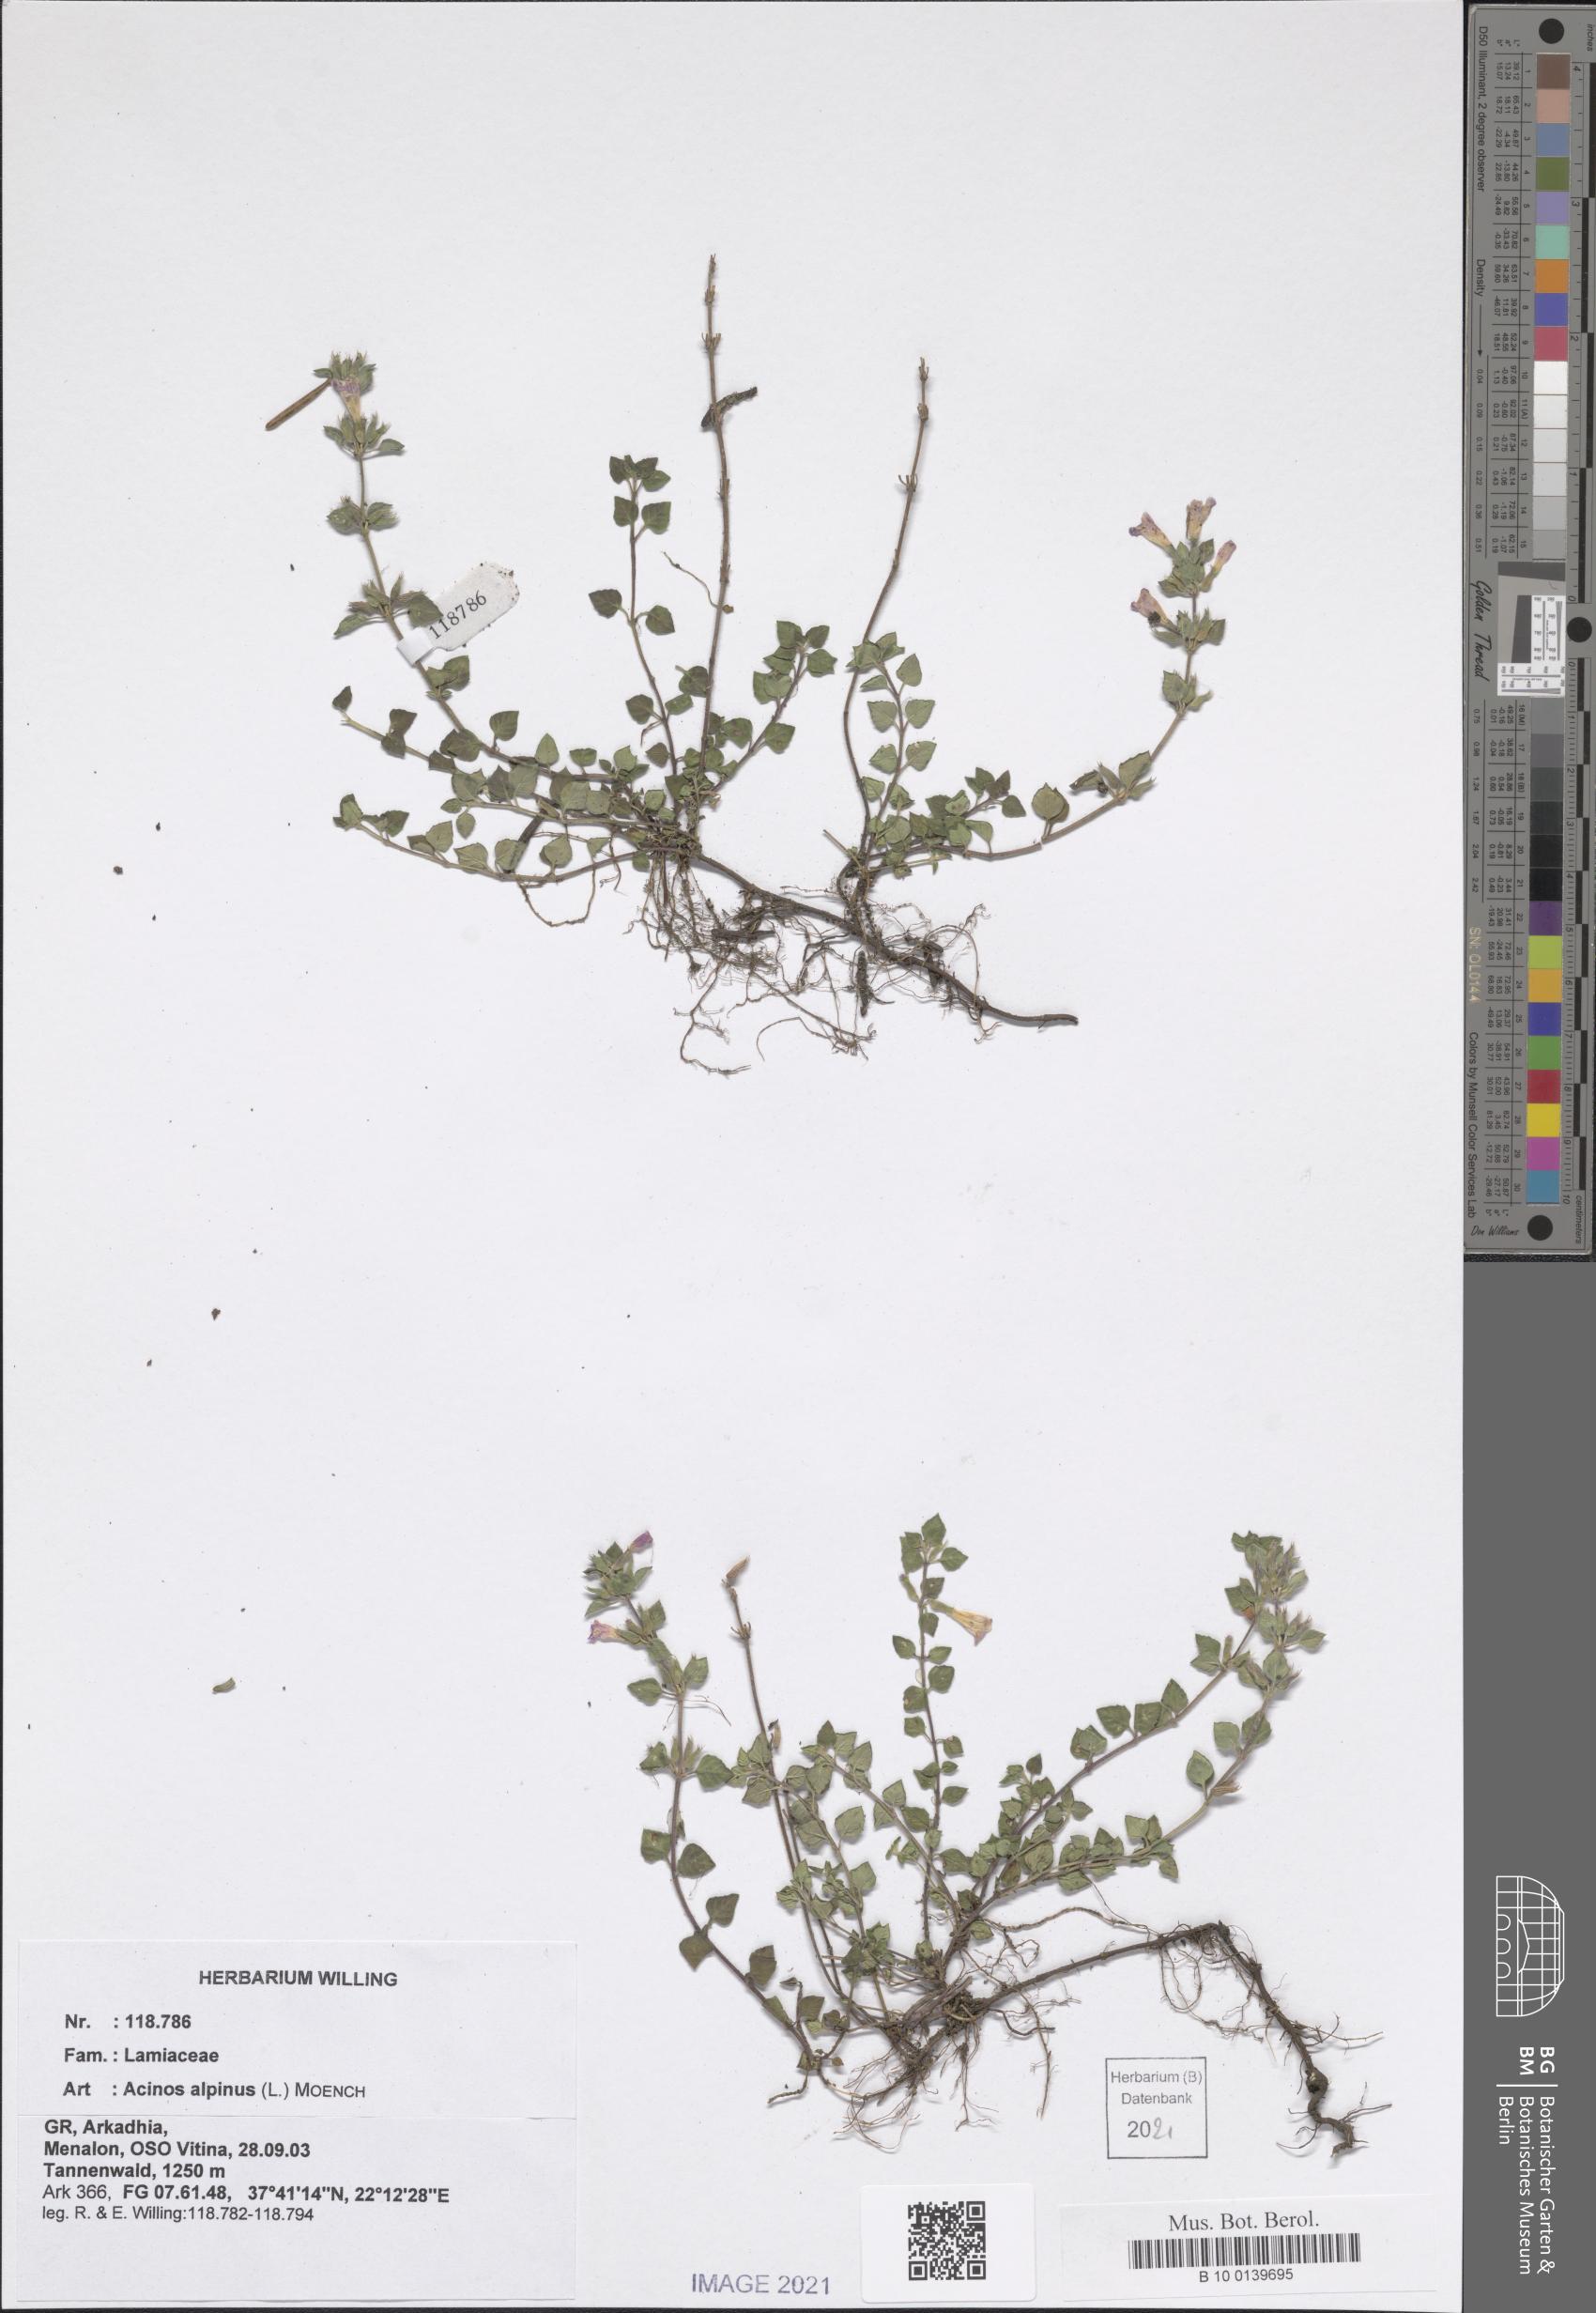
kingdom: Plantae
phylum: Tracheophyta
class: Magnoliopsida
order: Lamiales
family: Lamiaceae
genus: Clinopodium
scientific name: Clinopodium alpinum
